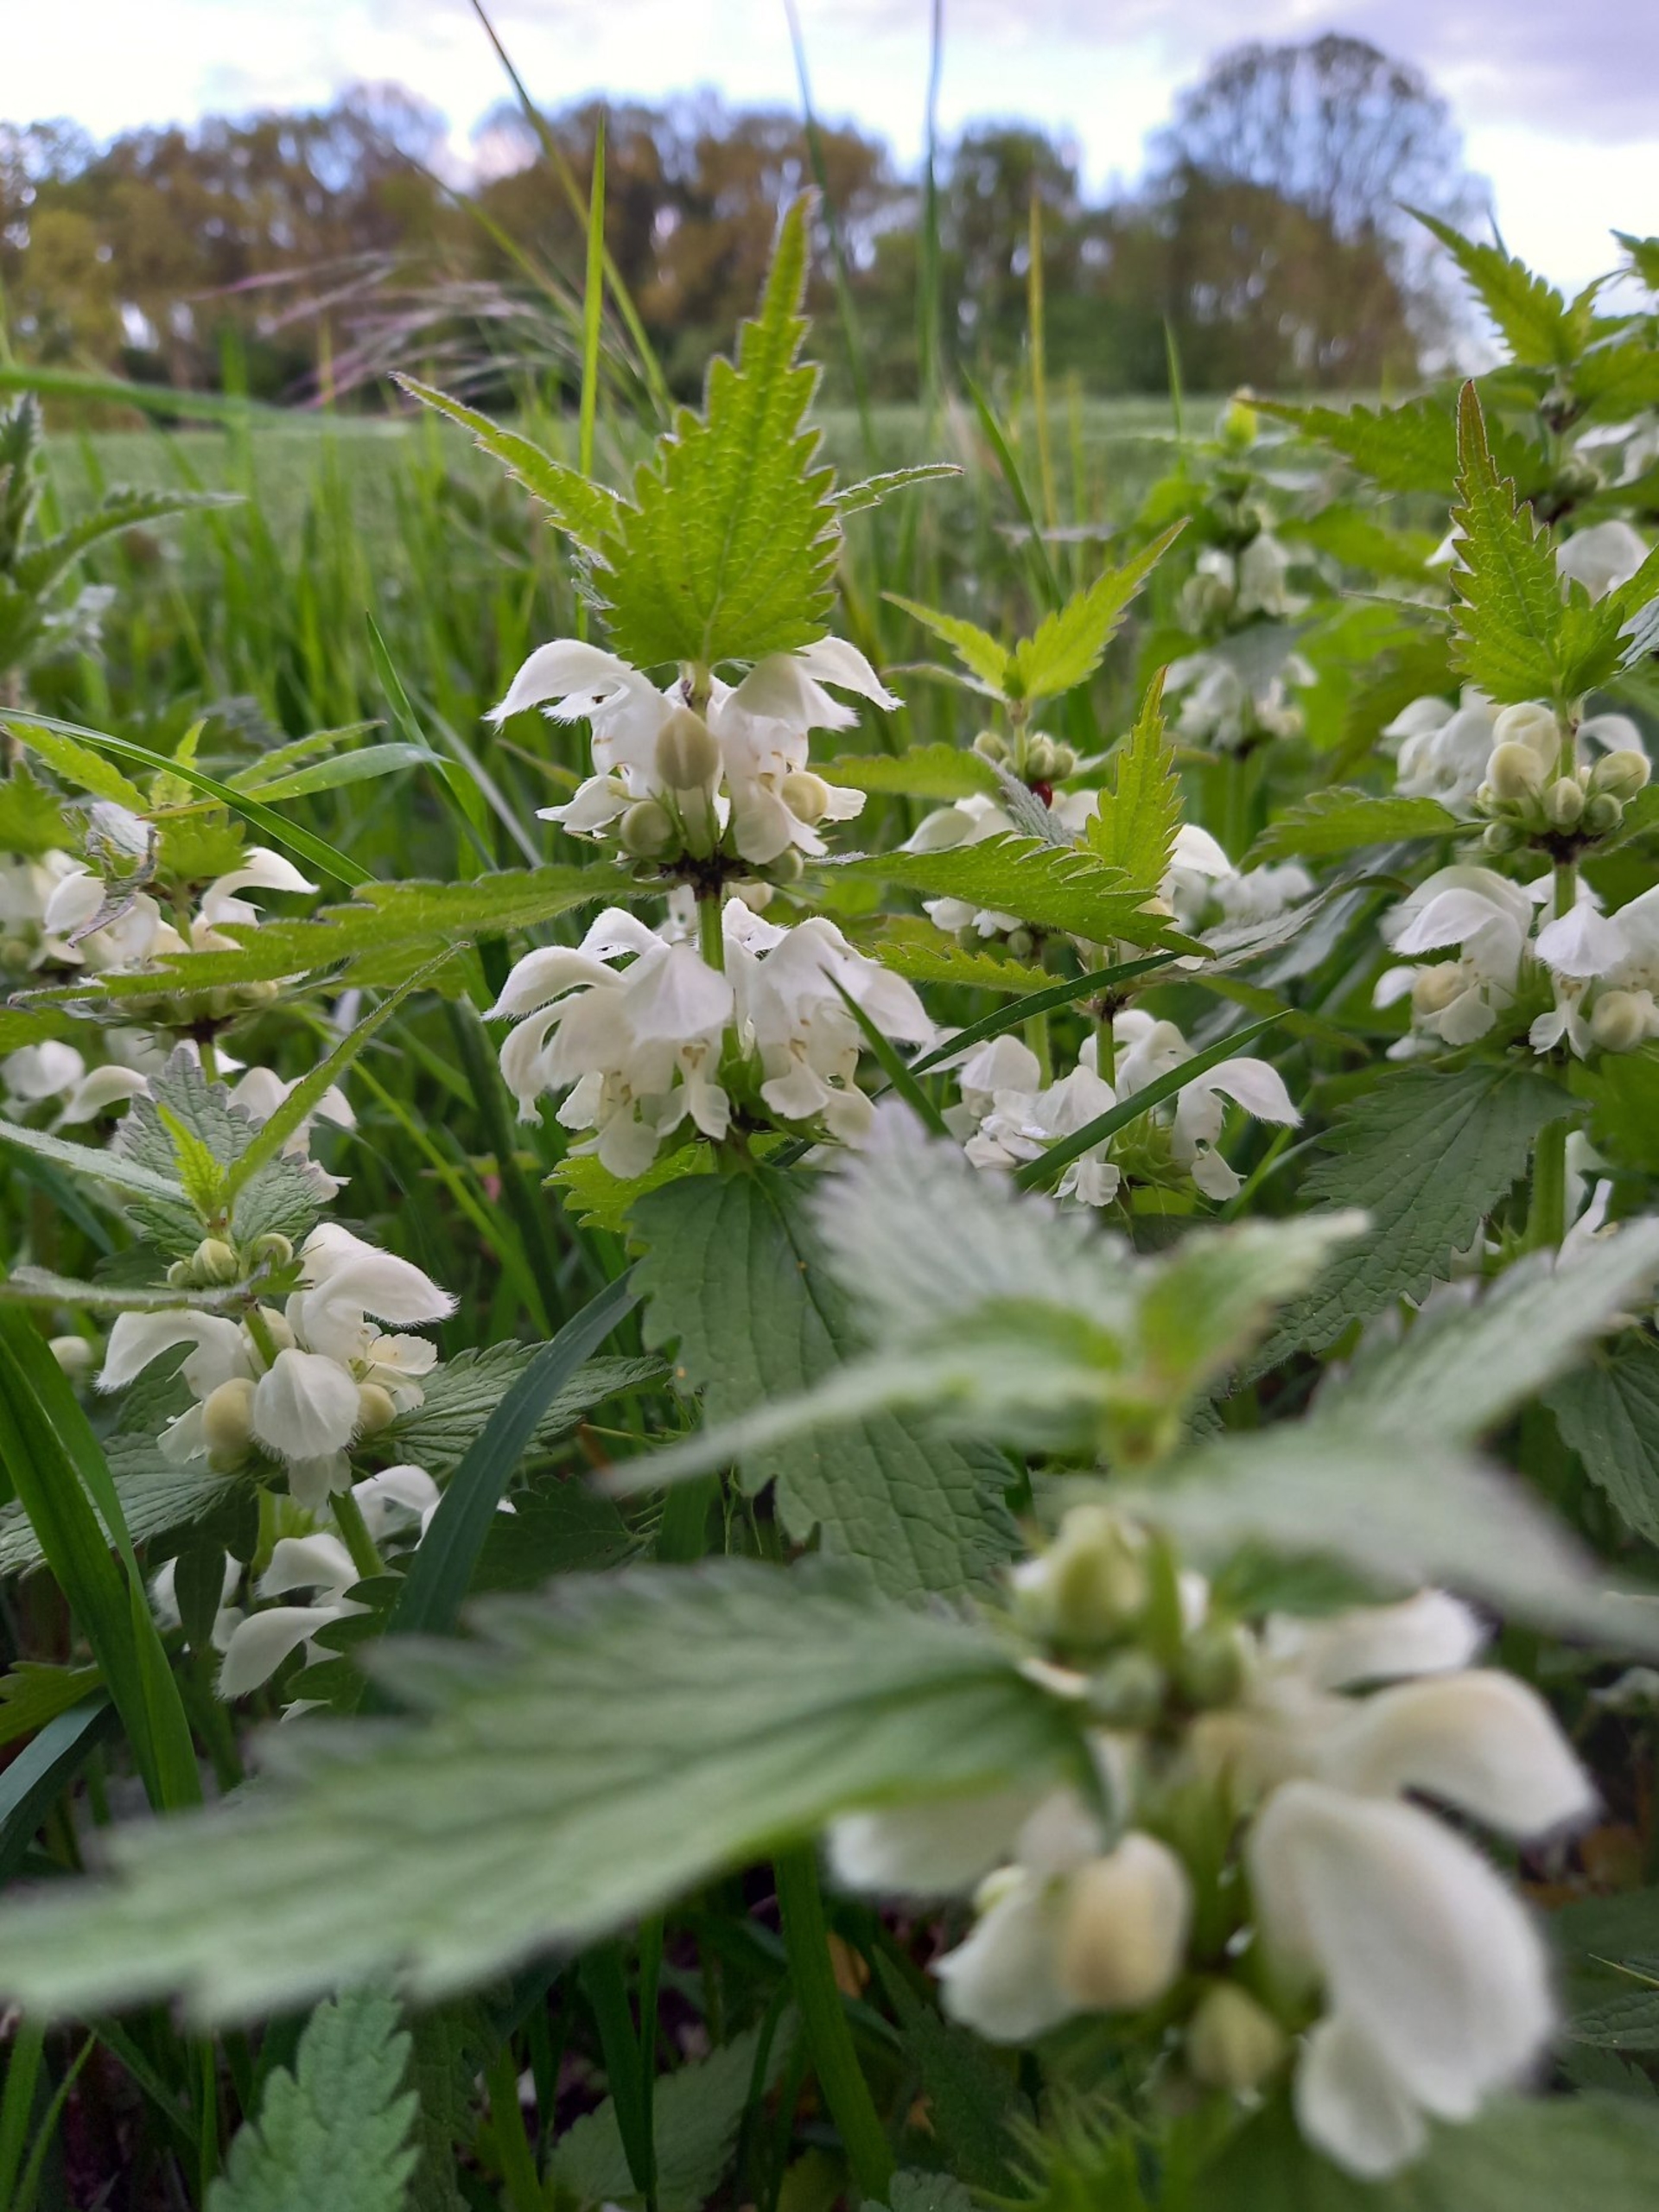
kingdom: Plantae
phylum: Tracheophyta
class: Magnoliopsida
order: Lamiales
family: Lamiaceae
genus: Lamium
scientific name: Lamium album
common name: Døvnælde
